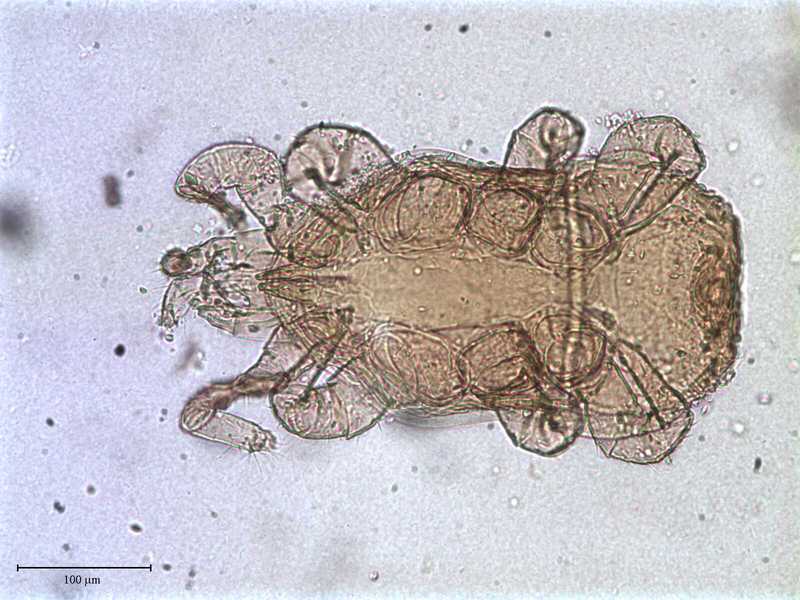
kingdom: Animalia
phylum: Arthropoda
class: Arachnida
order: Mesostigmata
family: Ologamasidae
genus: Gamasellus
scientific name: Gamasellus
